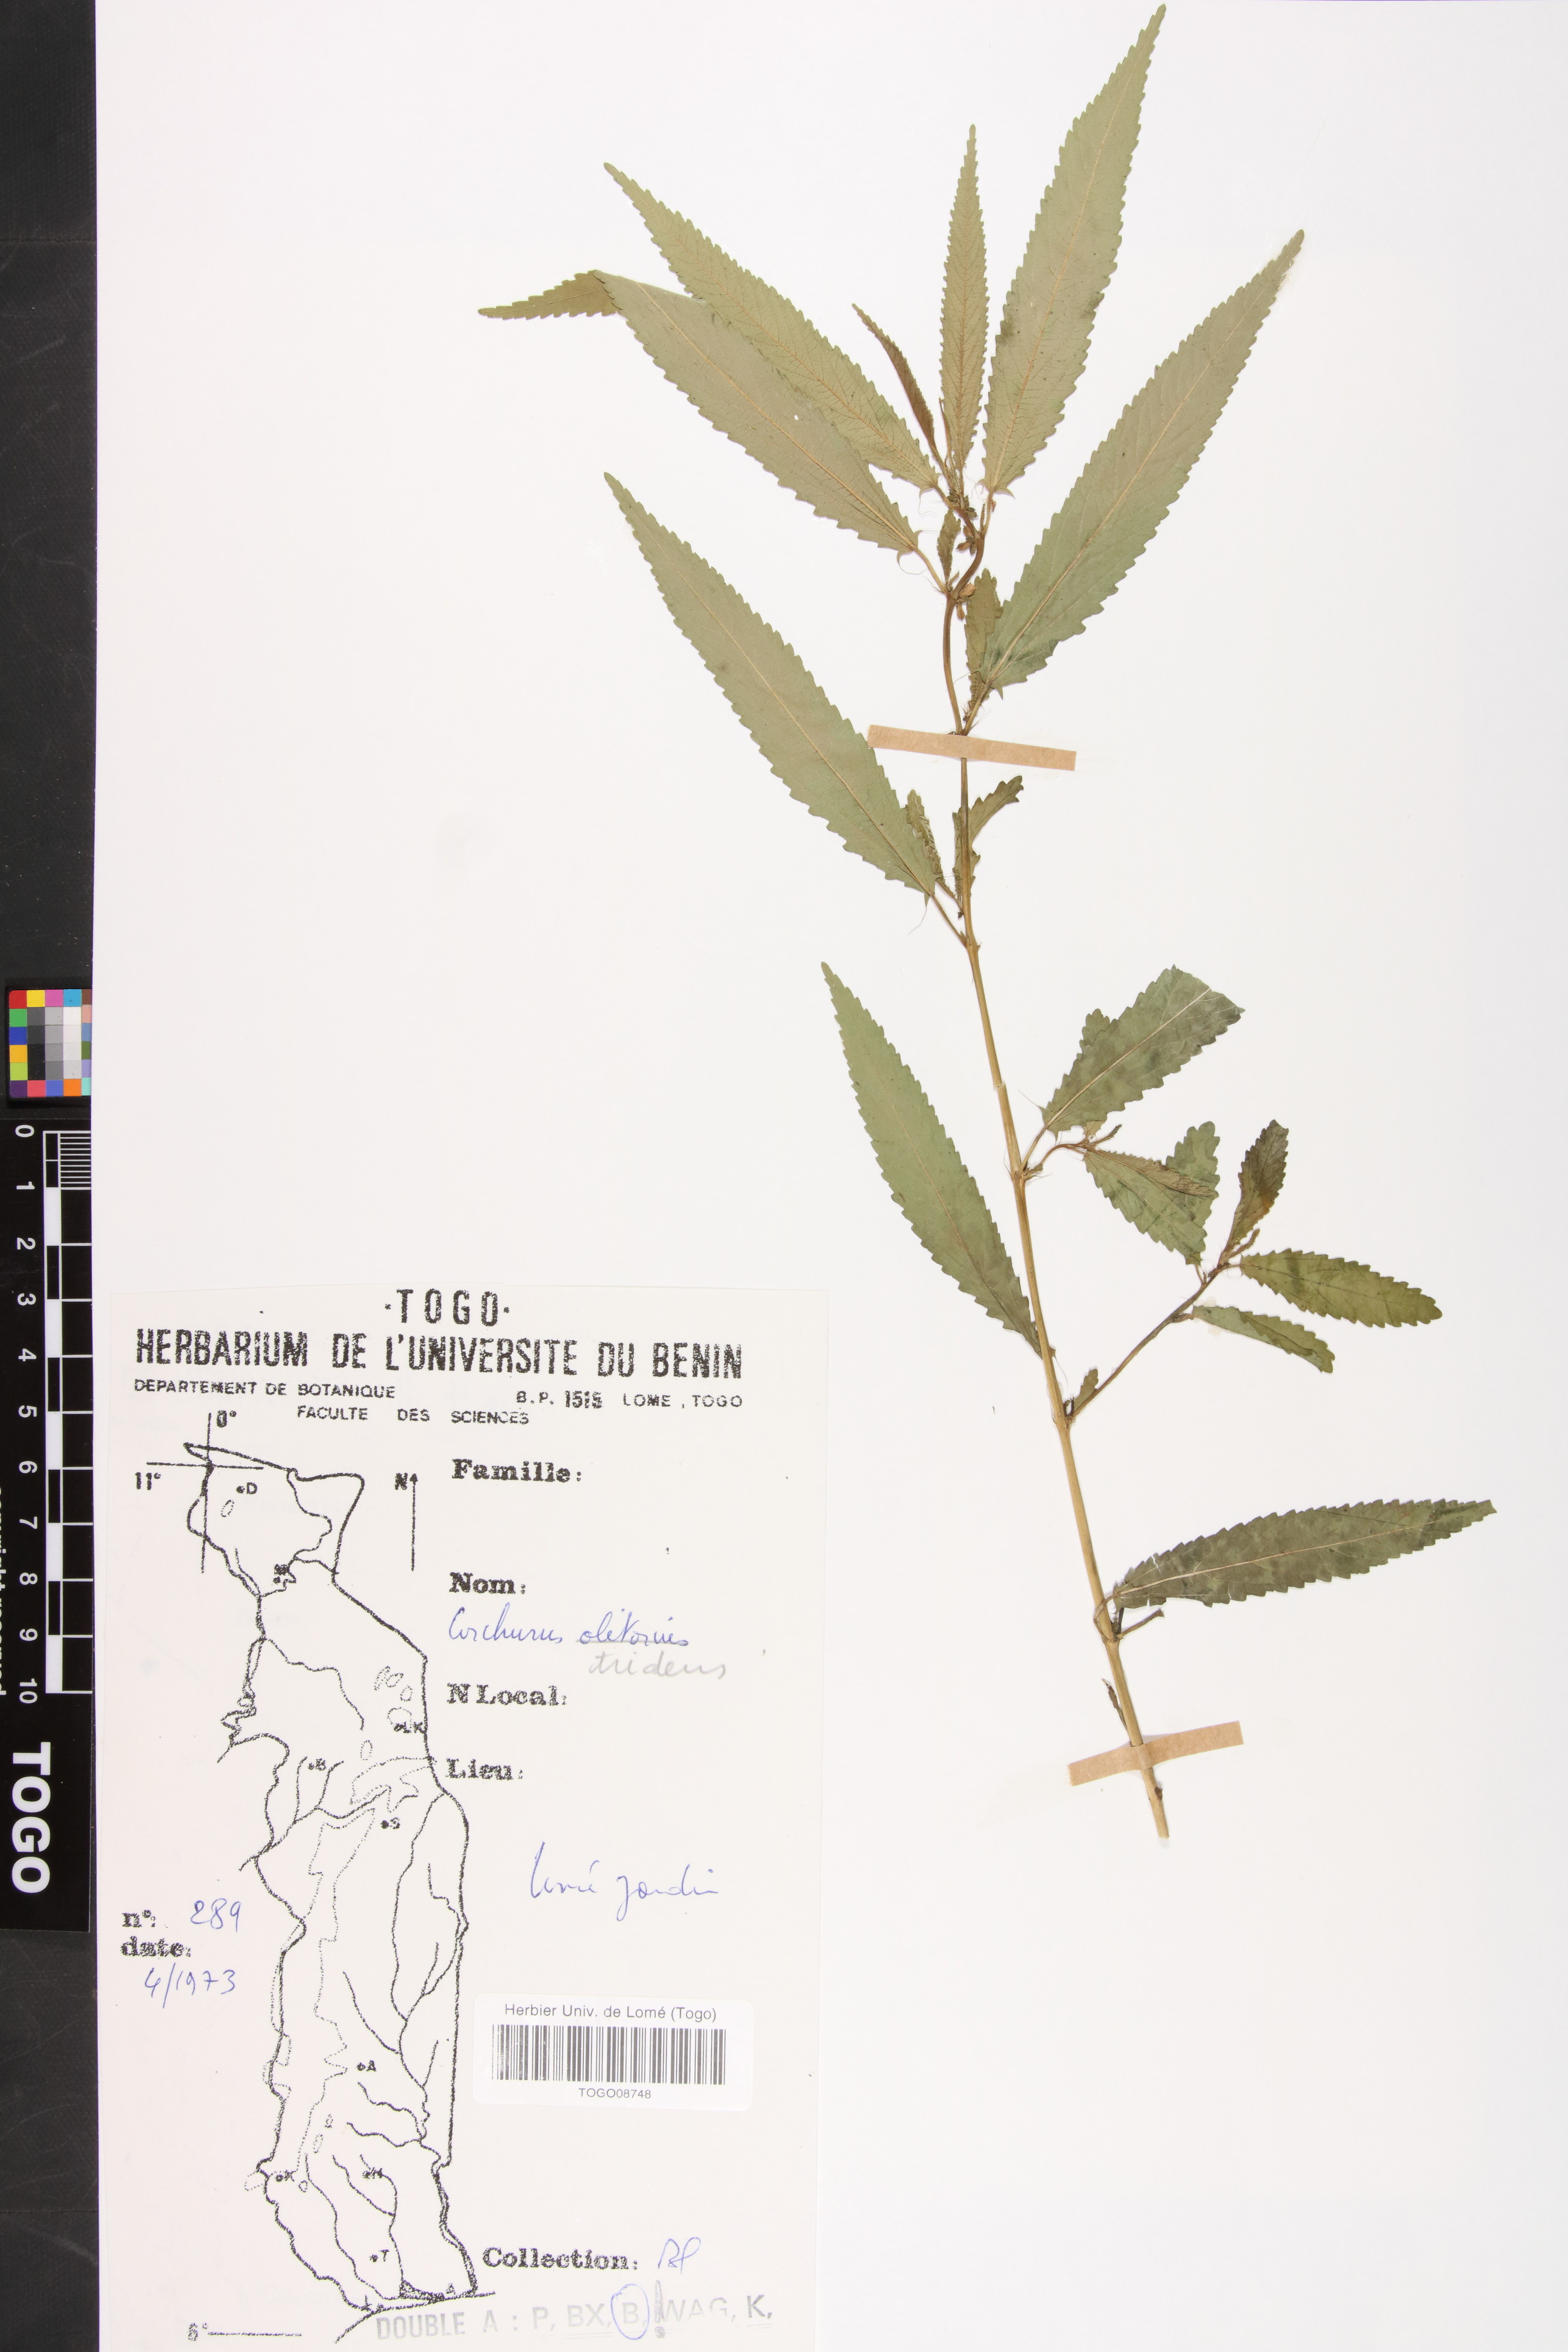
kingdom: Plantae
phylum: Tracheophyta
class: Magnoliopsida
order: Malvales
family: Malvaceae
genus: Corchorus
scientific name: Corchorus tridens
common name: Wild jute
